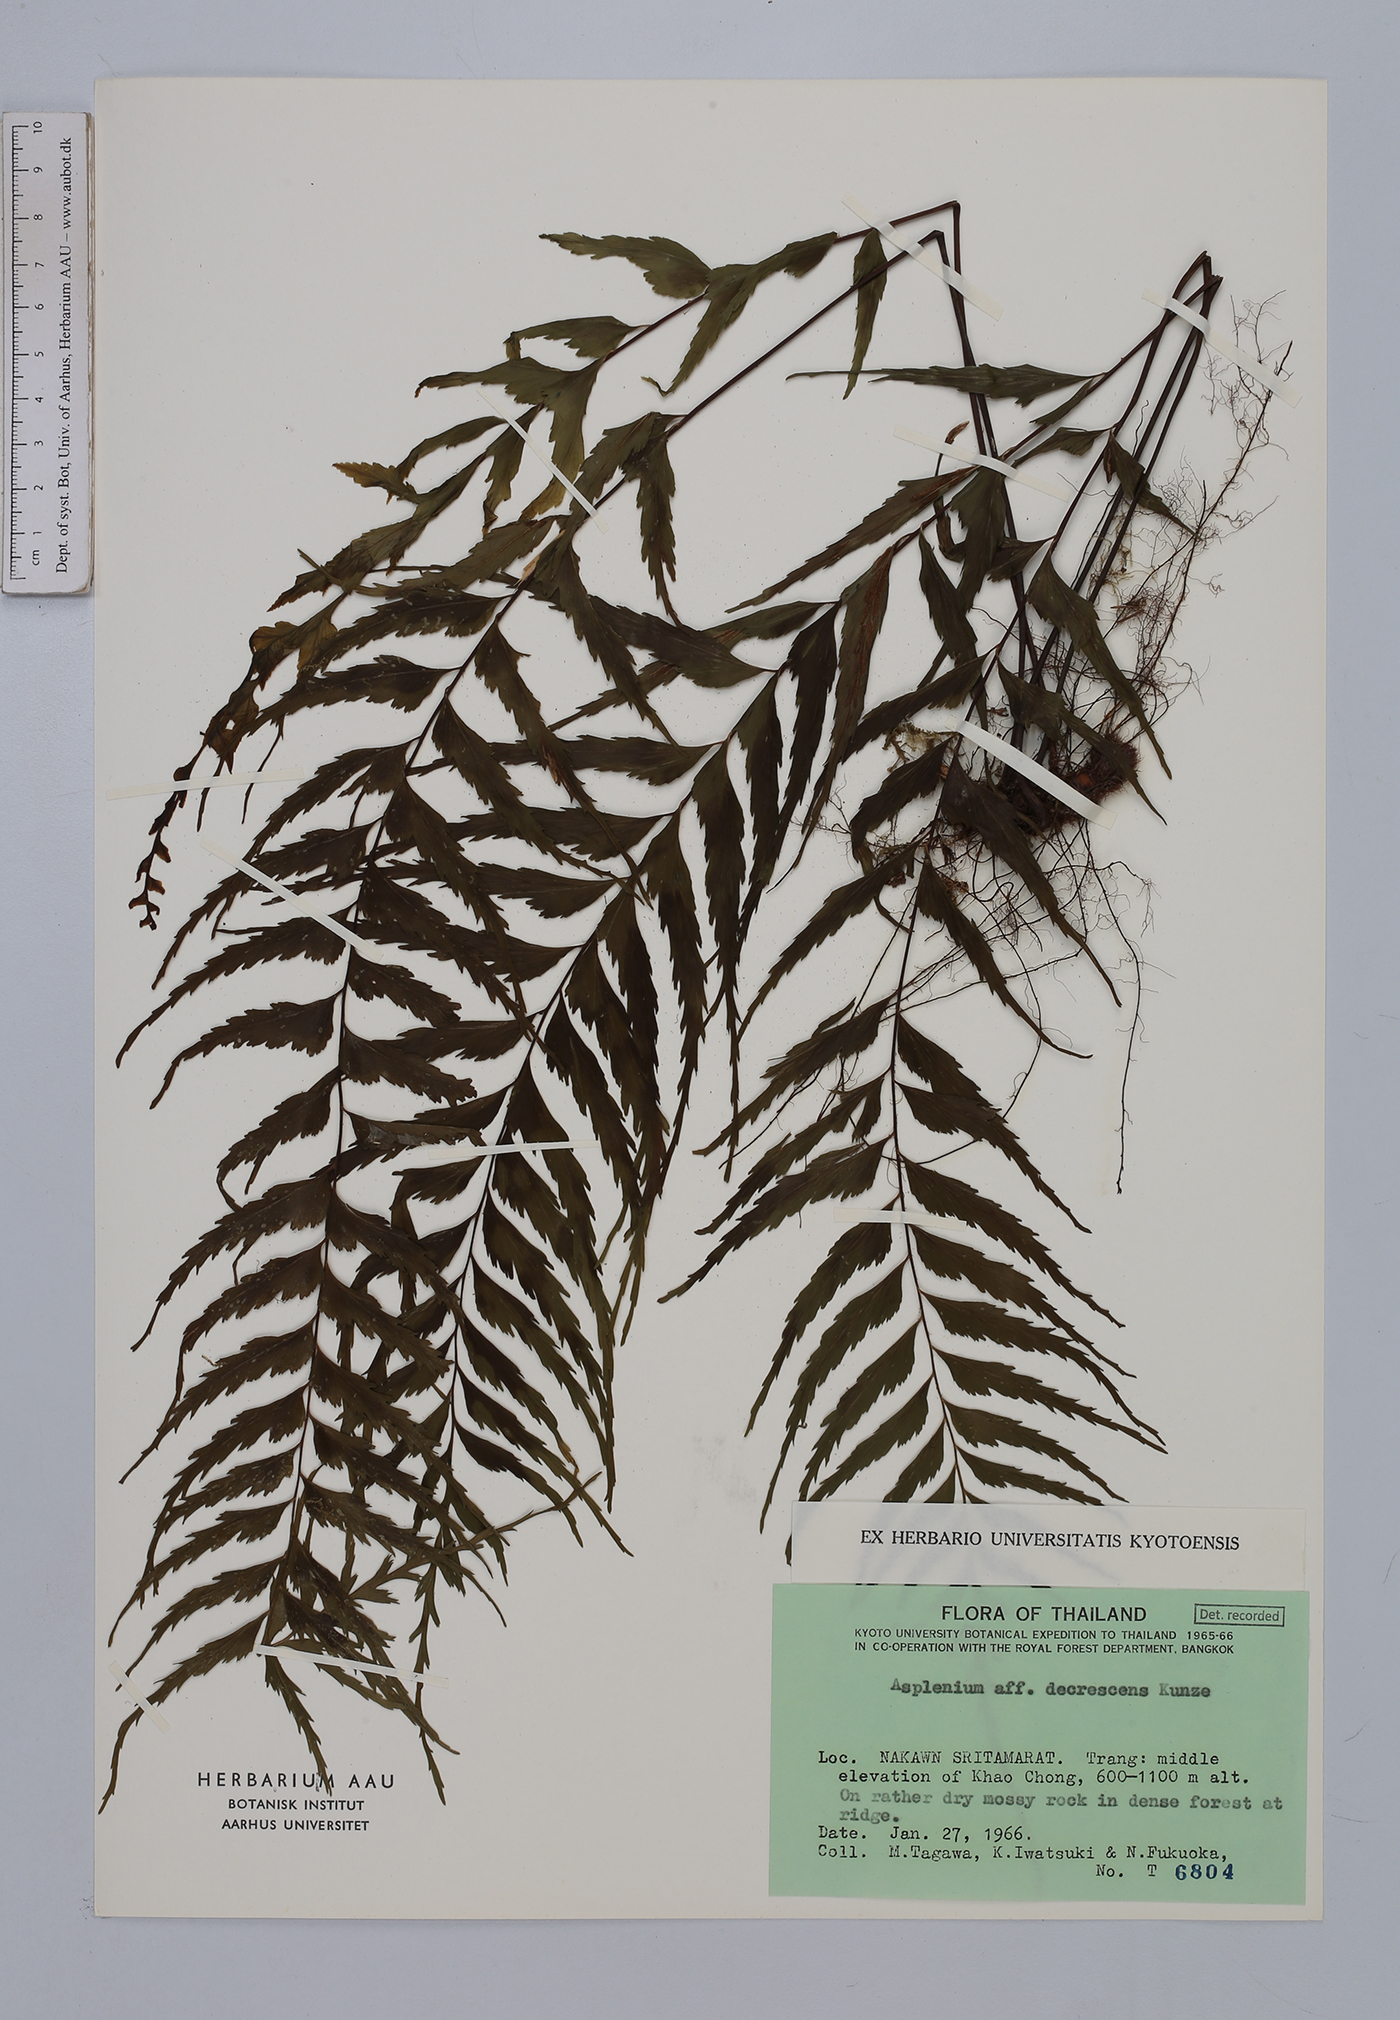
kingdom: Plantae
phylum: Tracheophyta
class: Polypodiopsida
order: Polypodiales
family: Aspleniaceae
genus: Asplenium
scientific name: Asplenium decrescens
